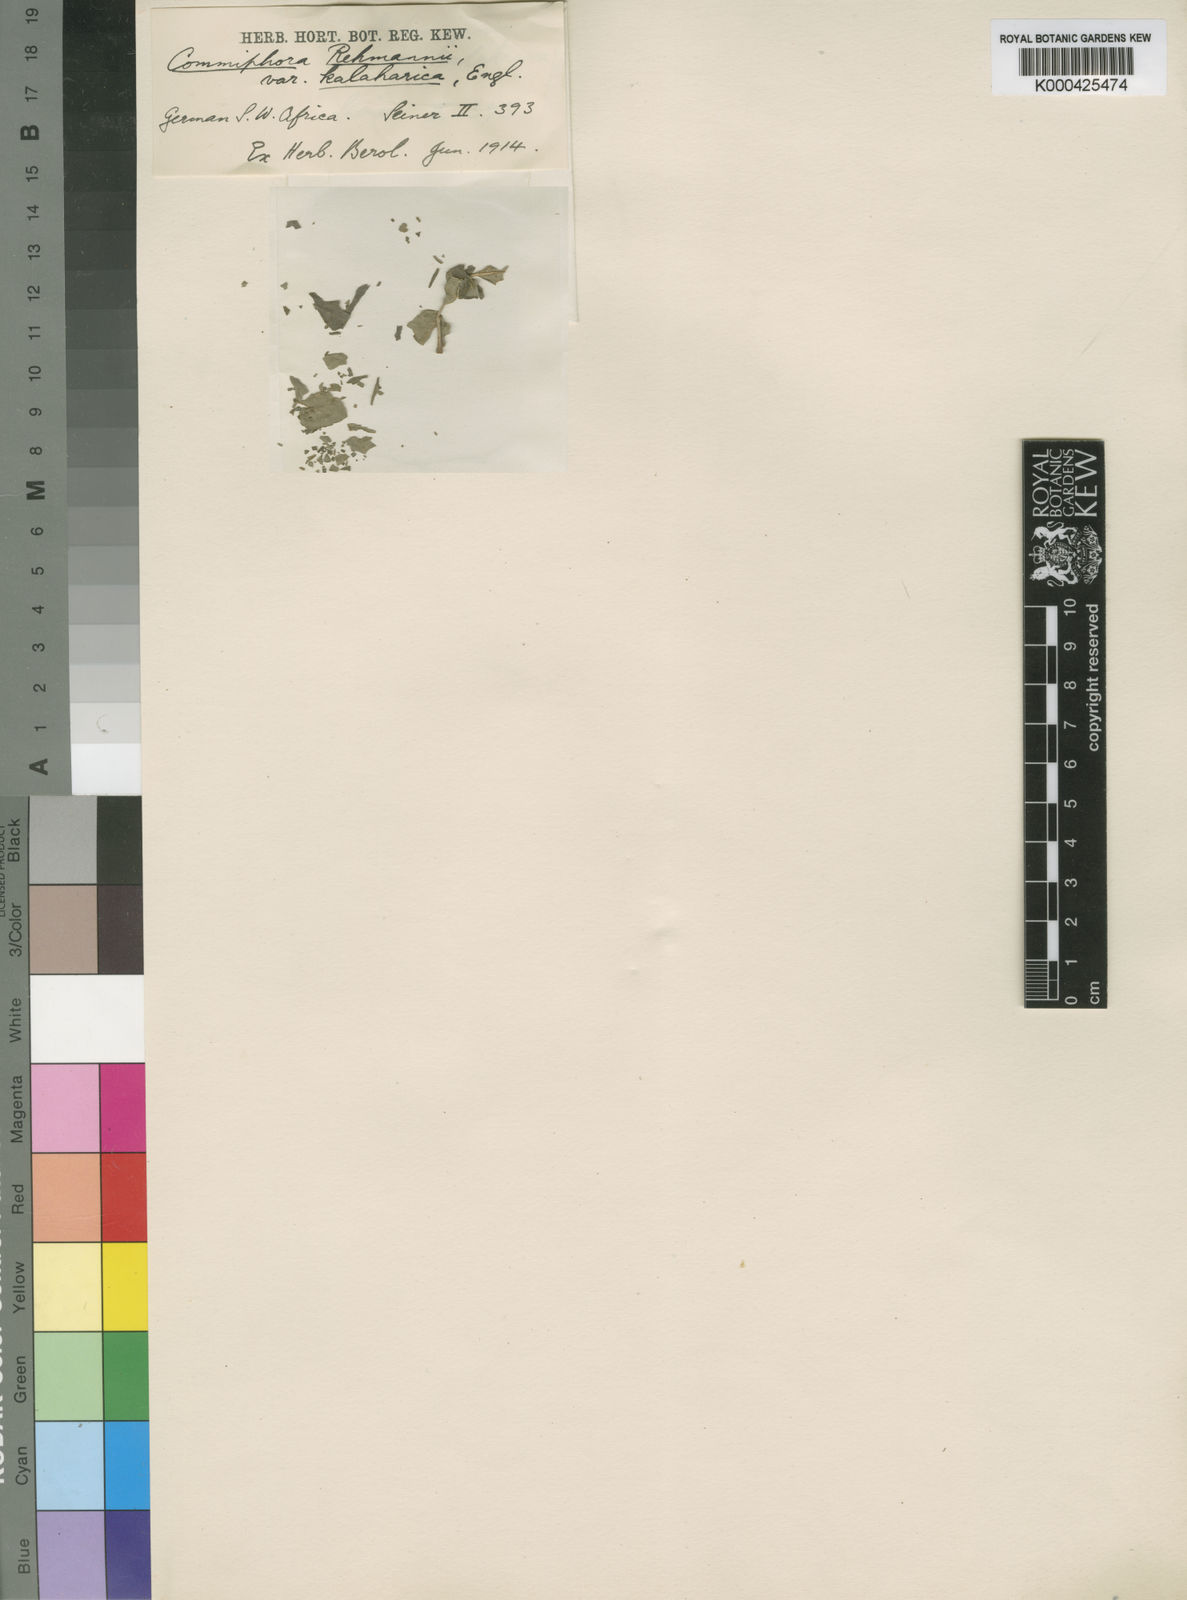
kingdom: Plantae
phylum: Tracheophyta
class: Magnoliopsida
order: Sapindales
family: Burseraceae
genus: Commiphora
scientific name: Commiphora angolensis
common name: Poison-grub
